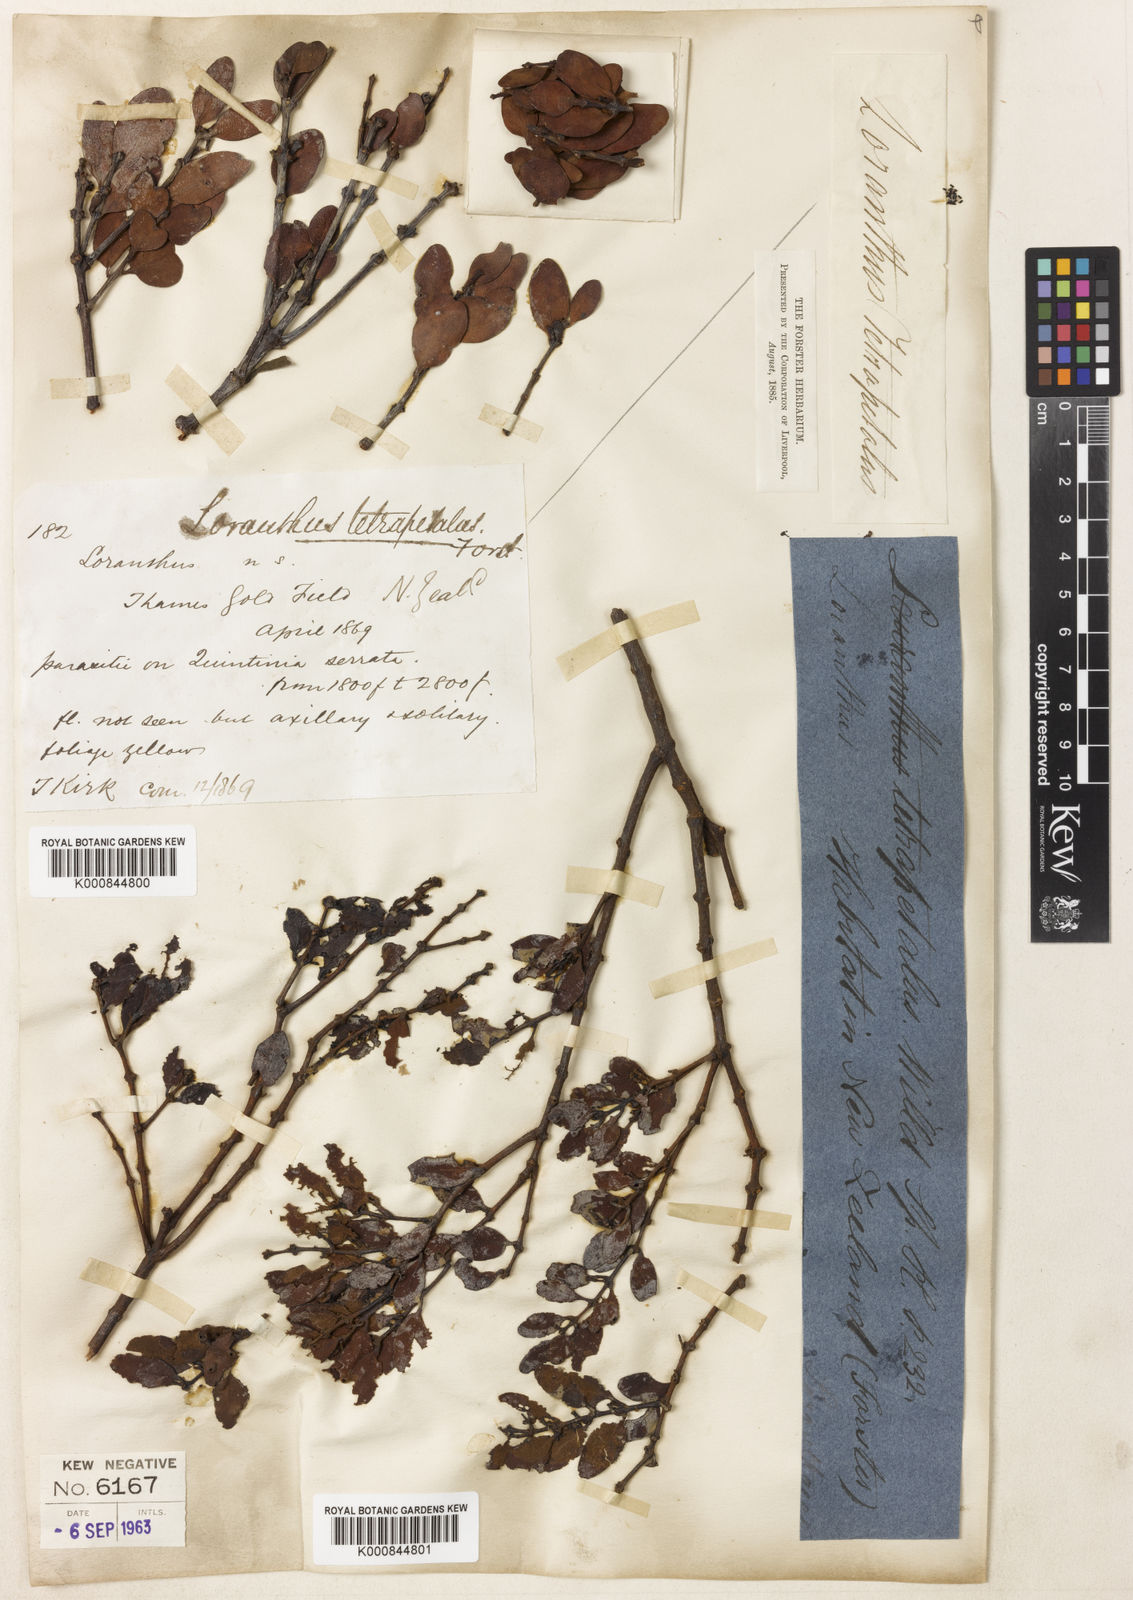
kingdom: Plantae
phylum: Tracheophyta
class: Magnoliopsida
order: Santalales
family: Loranthaceae
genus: Peraxilla
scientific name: Peraxilla tetrapetala
